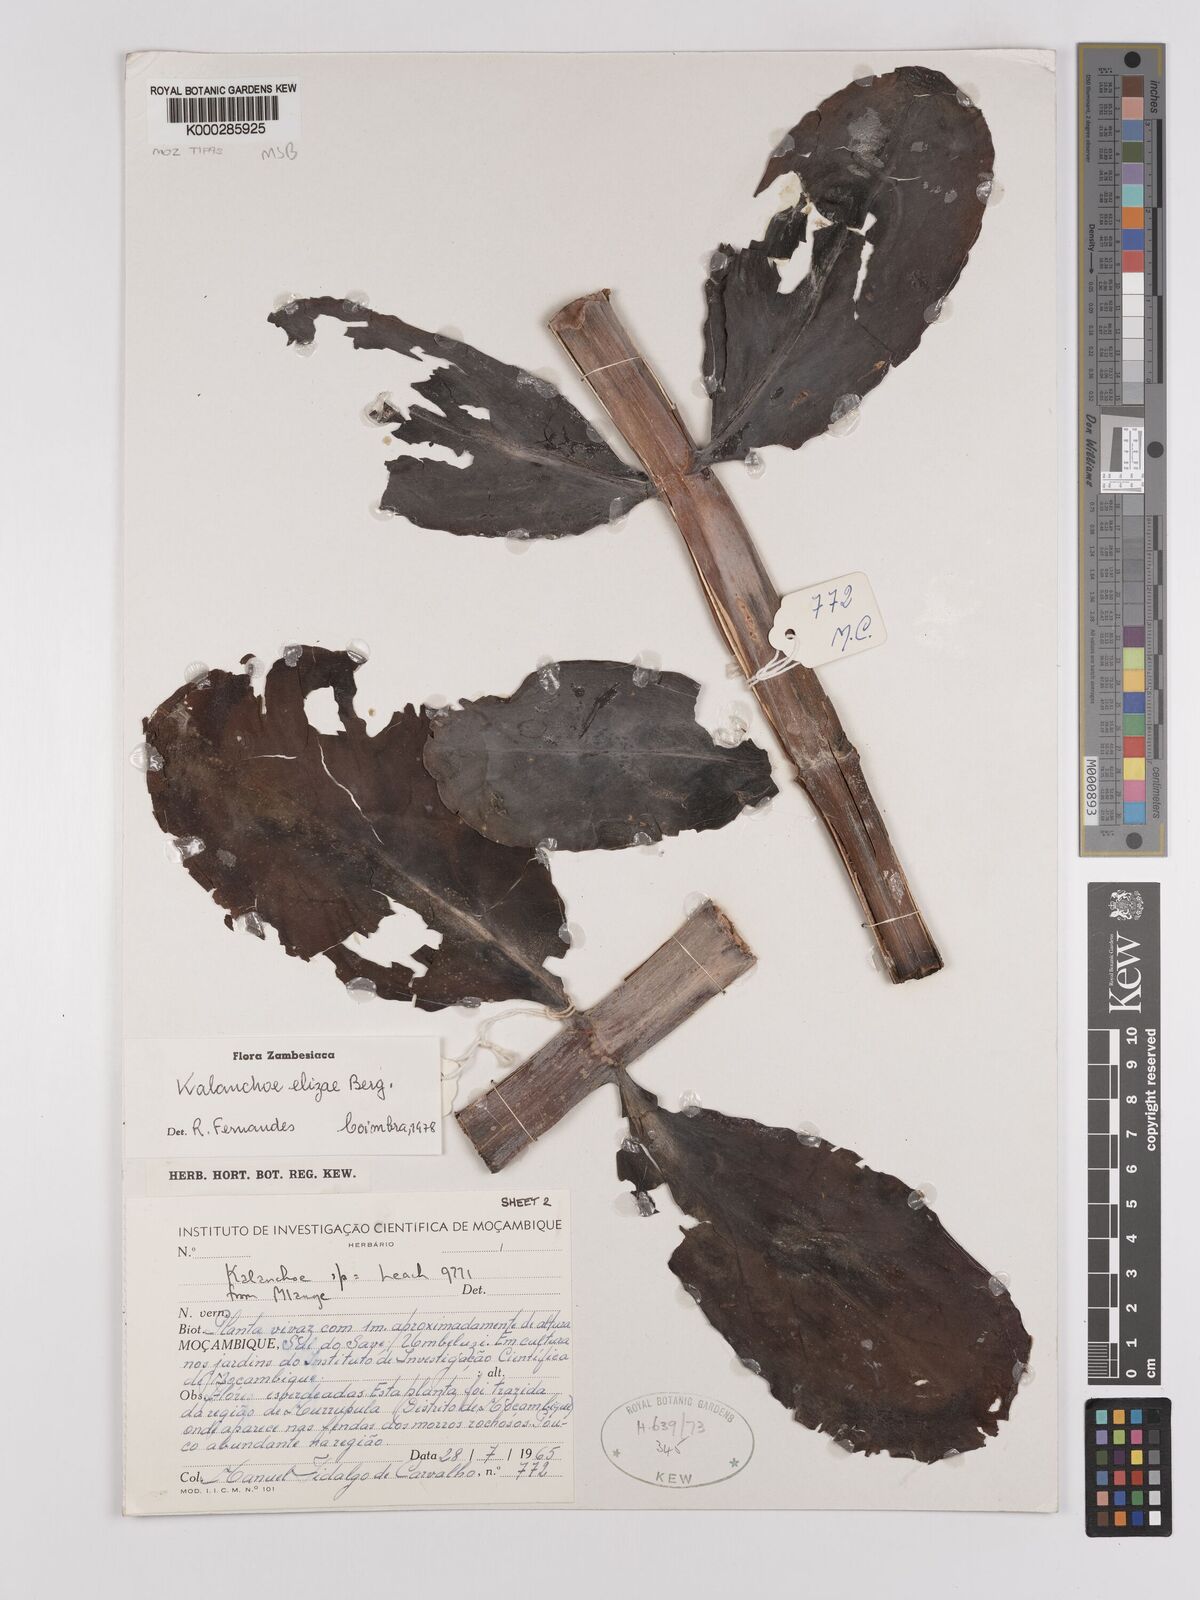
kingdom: Plantae
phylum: Tracheophyta
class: Magnoliopsida
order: Saxifragales
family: Crassulaceae
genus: Kalanchoe
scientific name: Kalanchoe elizae
